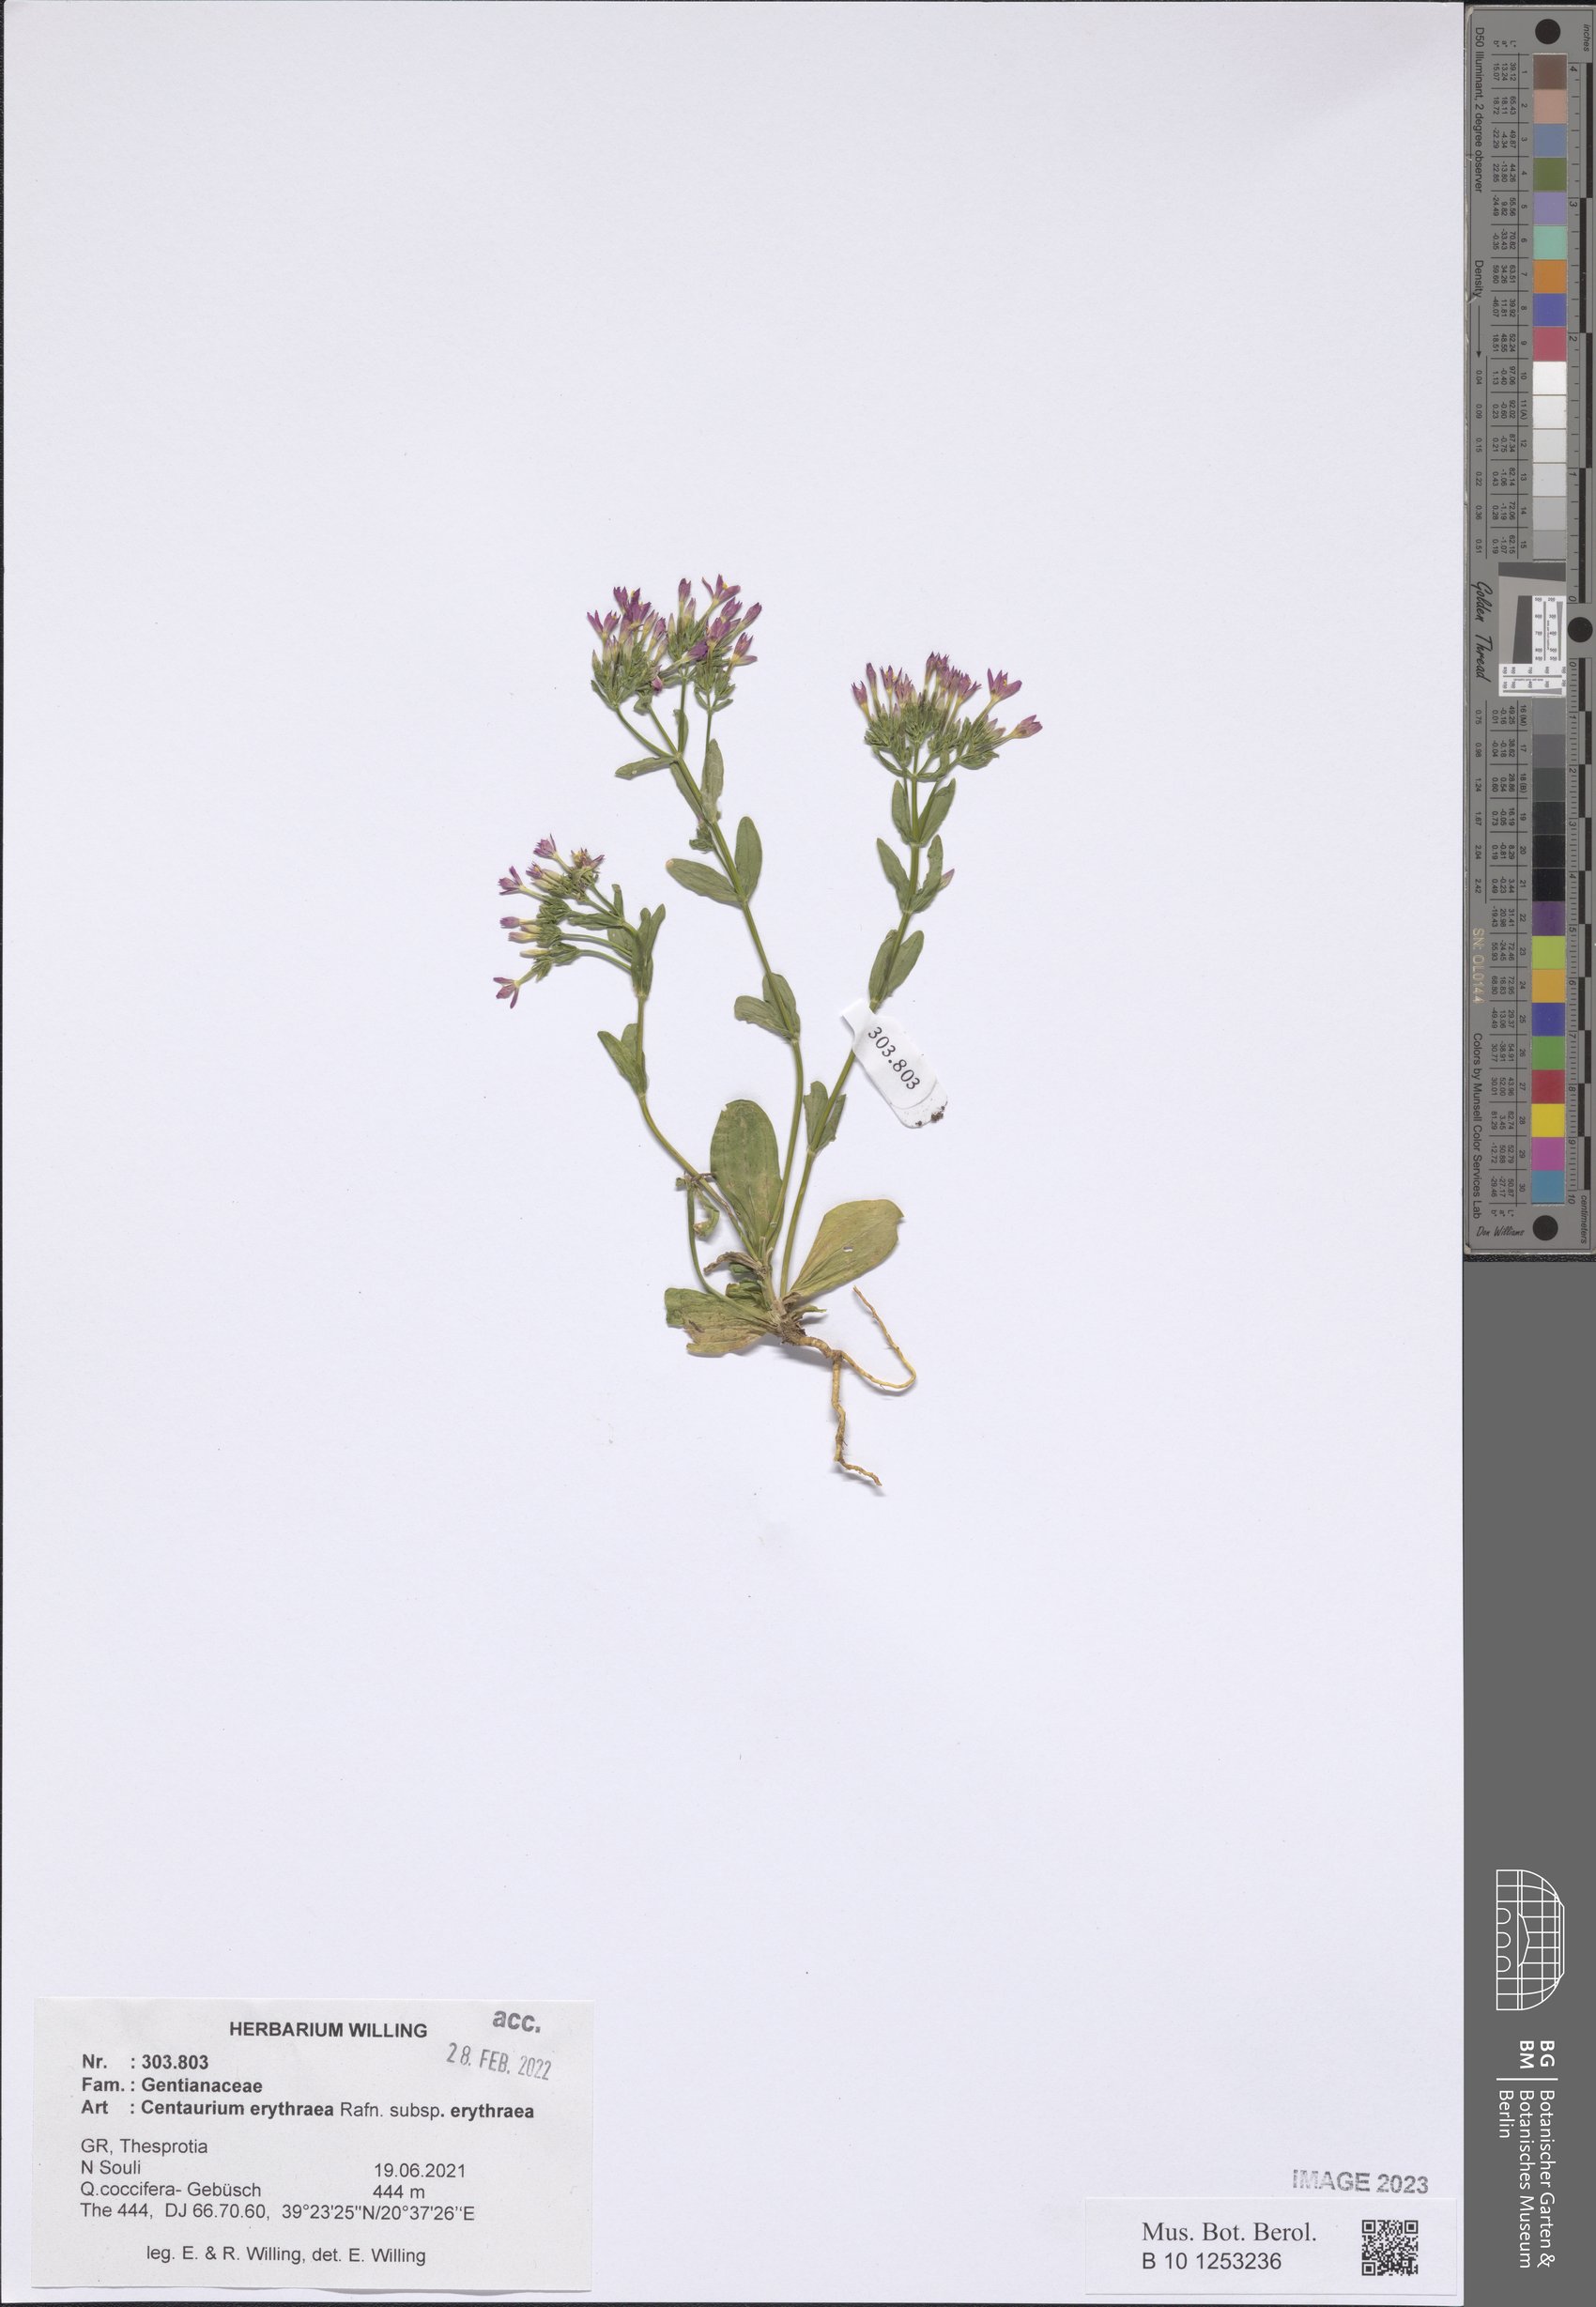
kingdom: Plantae
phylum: Tracheophyta
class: Magnoliopsida
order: Gentianales
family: Gentianaceae
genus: Centaurium
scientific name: Centaurium erythraea
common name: Common centaury
